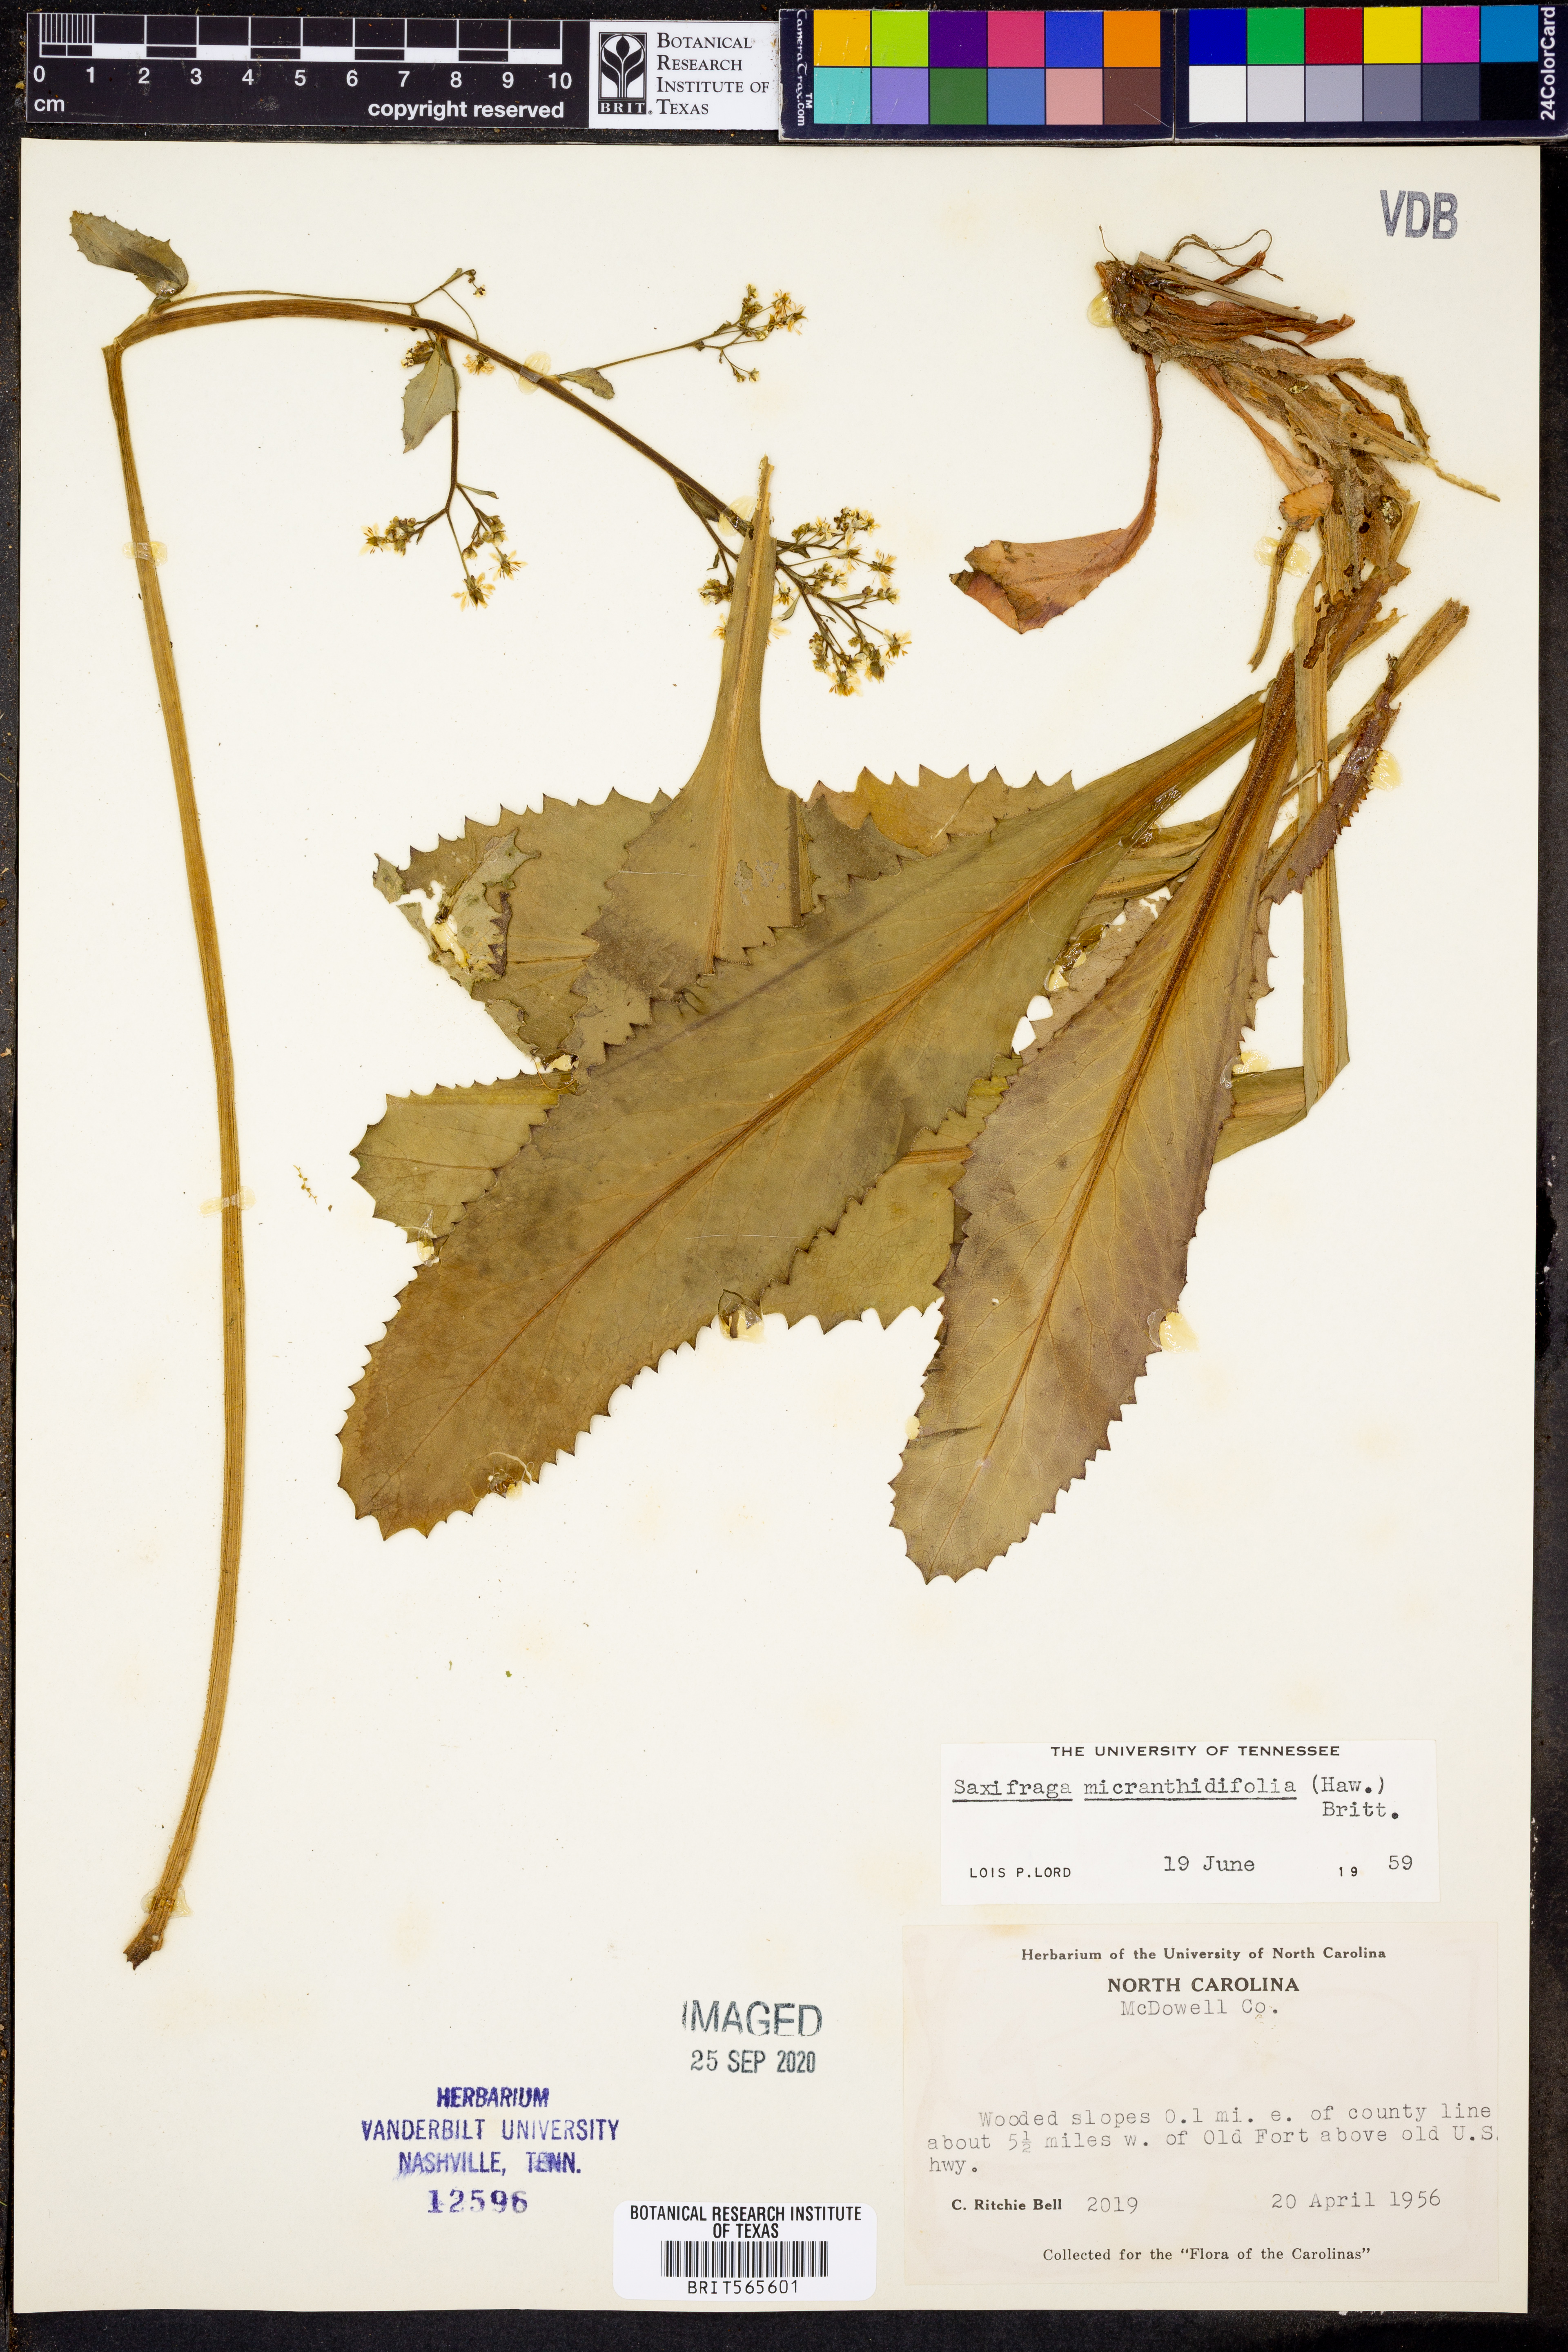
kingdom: Plantae
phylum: Tracheophyta
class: Magnoliopsida
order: Saxifragales
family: Saxifragaceae
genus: Micranthes
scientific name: Micranthes micranthidifolia
